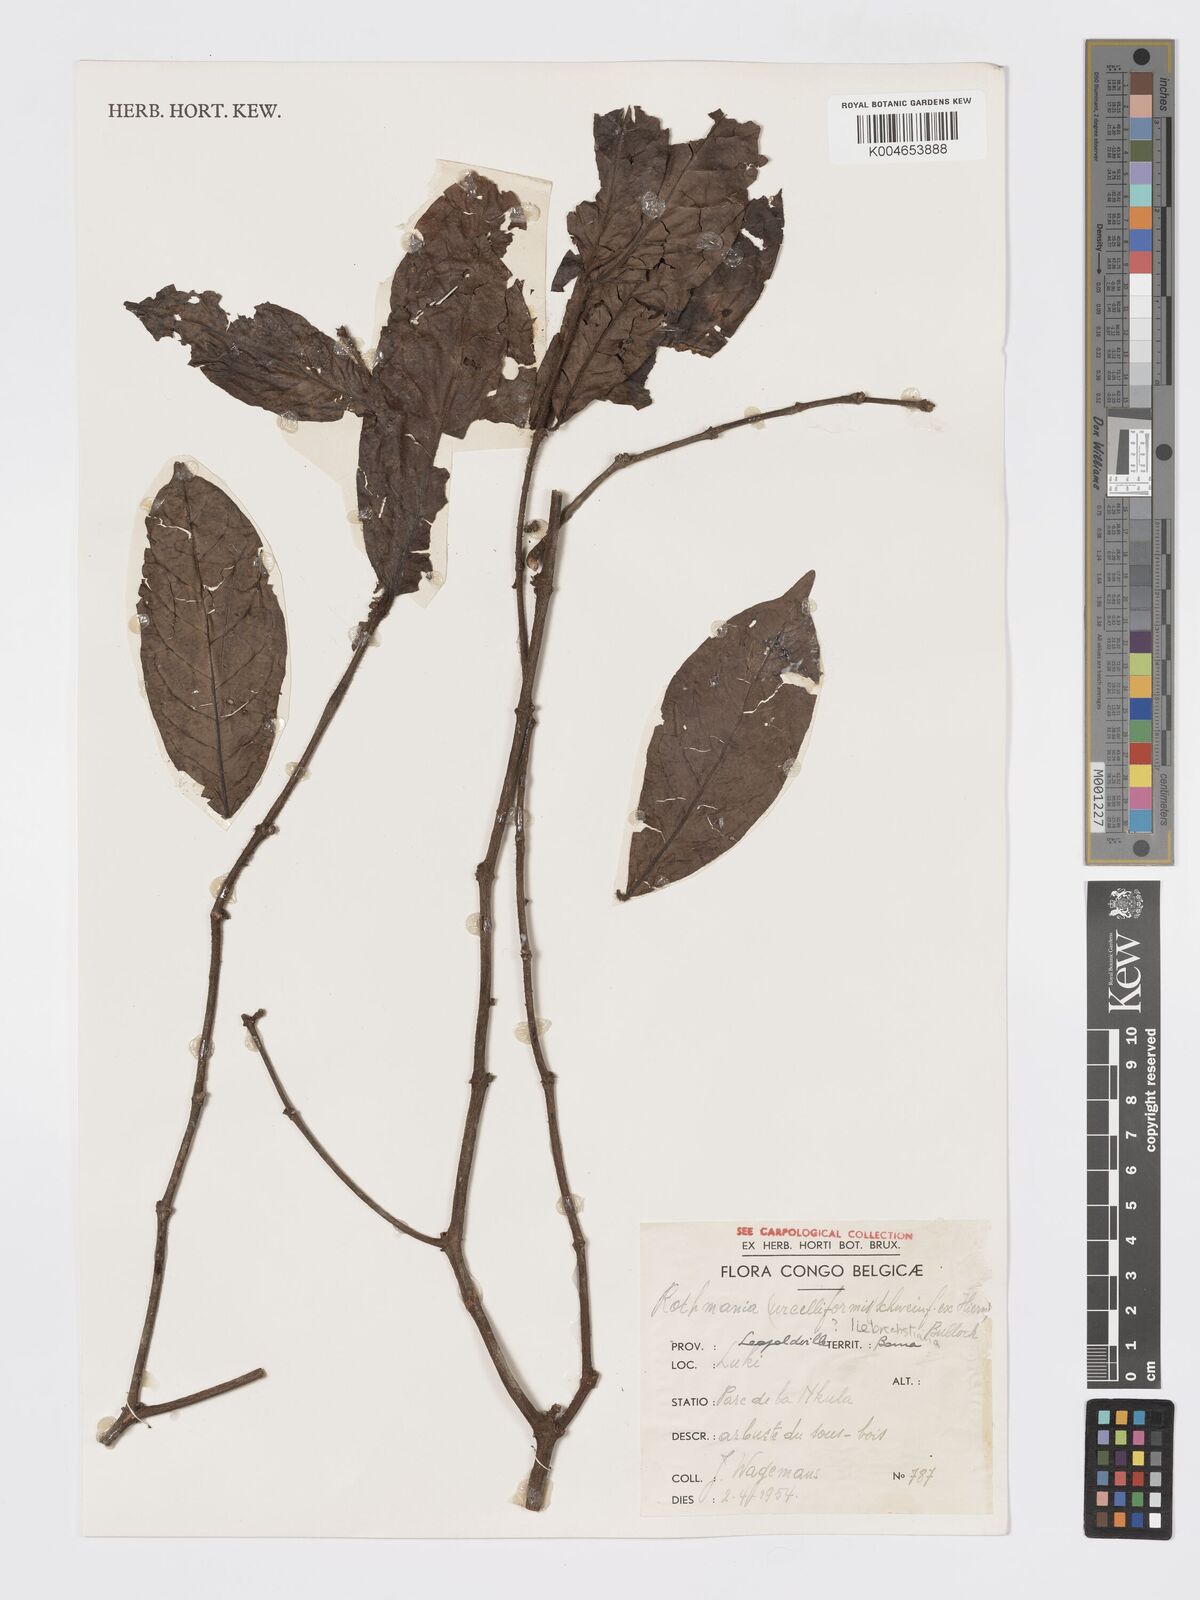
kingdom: Plantae
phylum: Tracheophyta
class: Magnoliopsida
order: Gentianales
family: Rubiaceae
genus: Rothmannia
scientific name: Rothmannia liebrechtsiana
